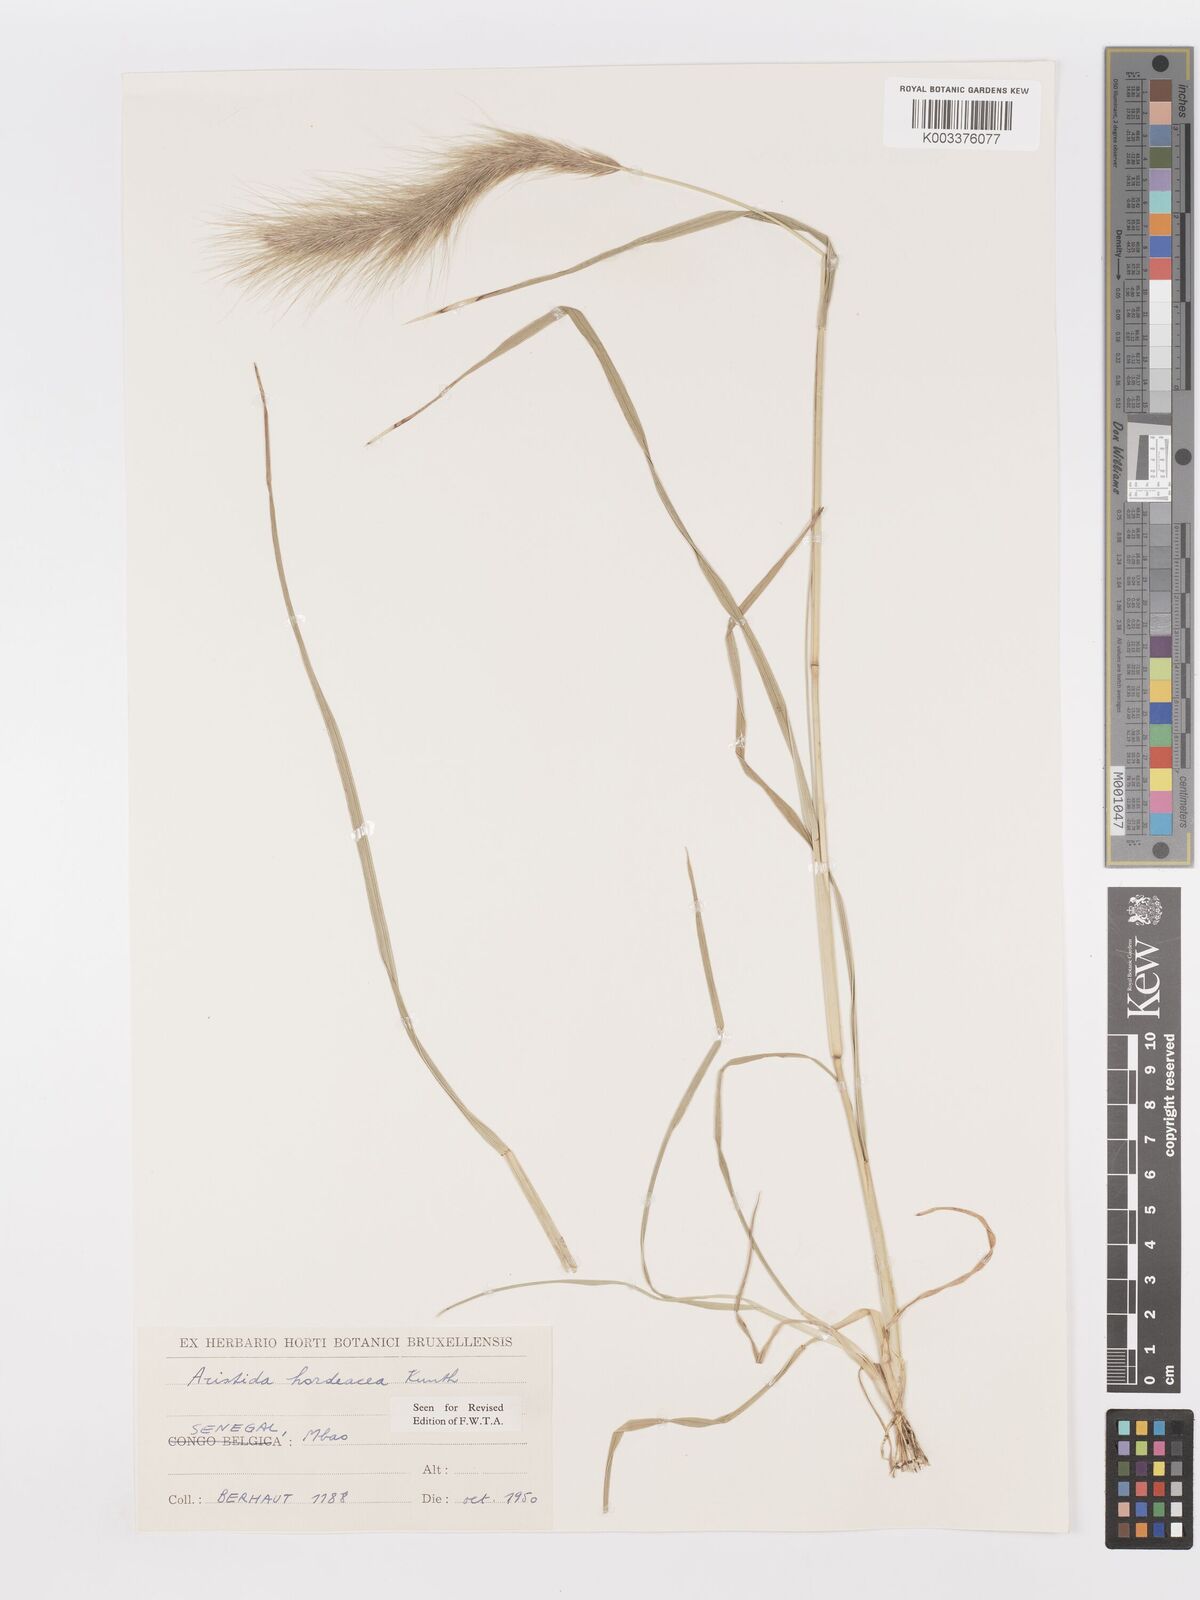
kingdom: Plantae
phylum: Tracheophyta
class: Liliopsida
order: Poales
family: Poaceae
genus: Aristida
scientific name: Aristida hordeacea
